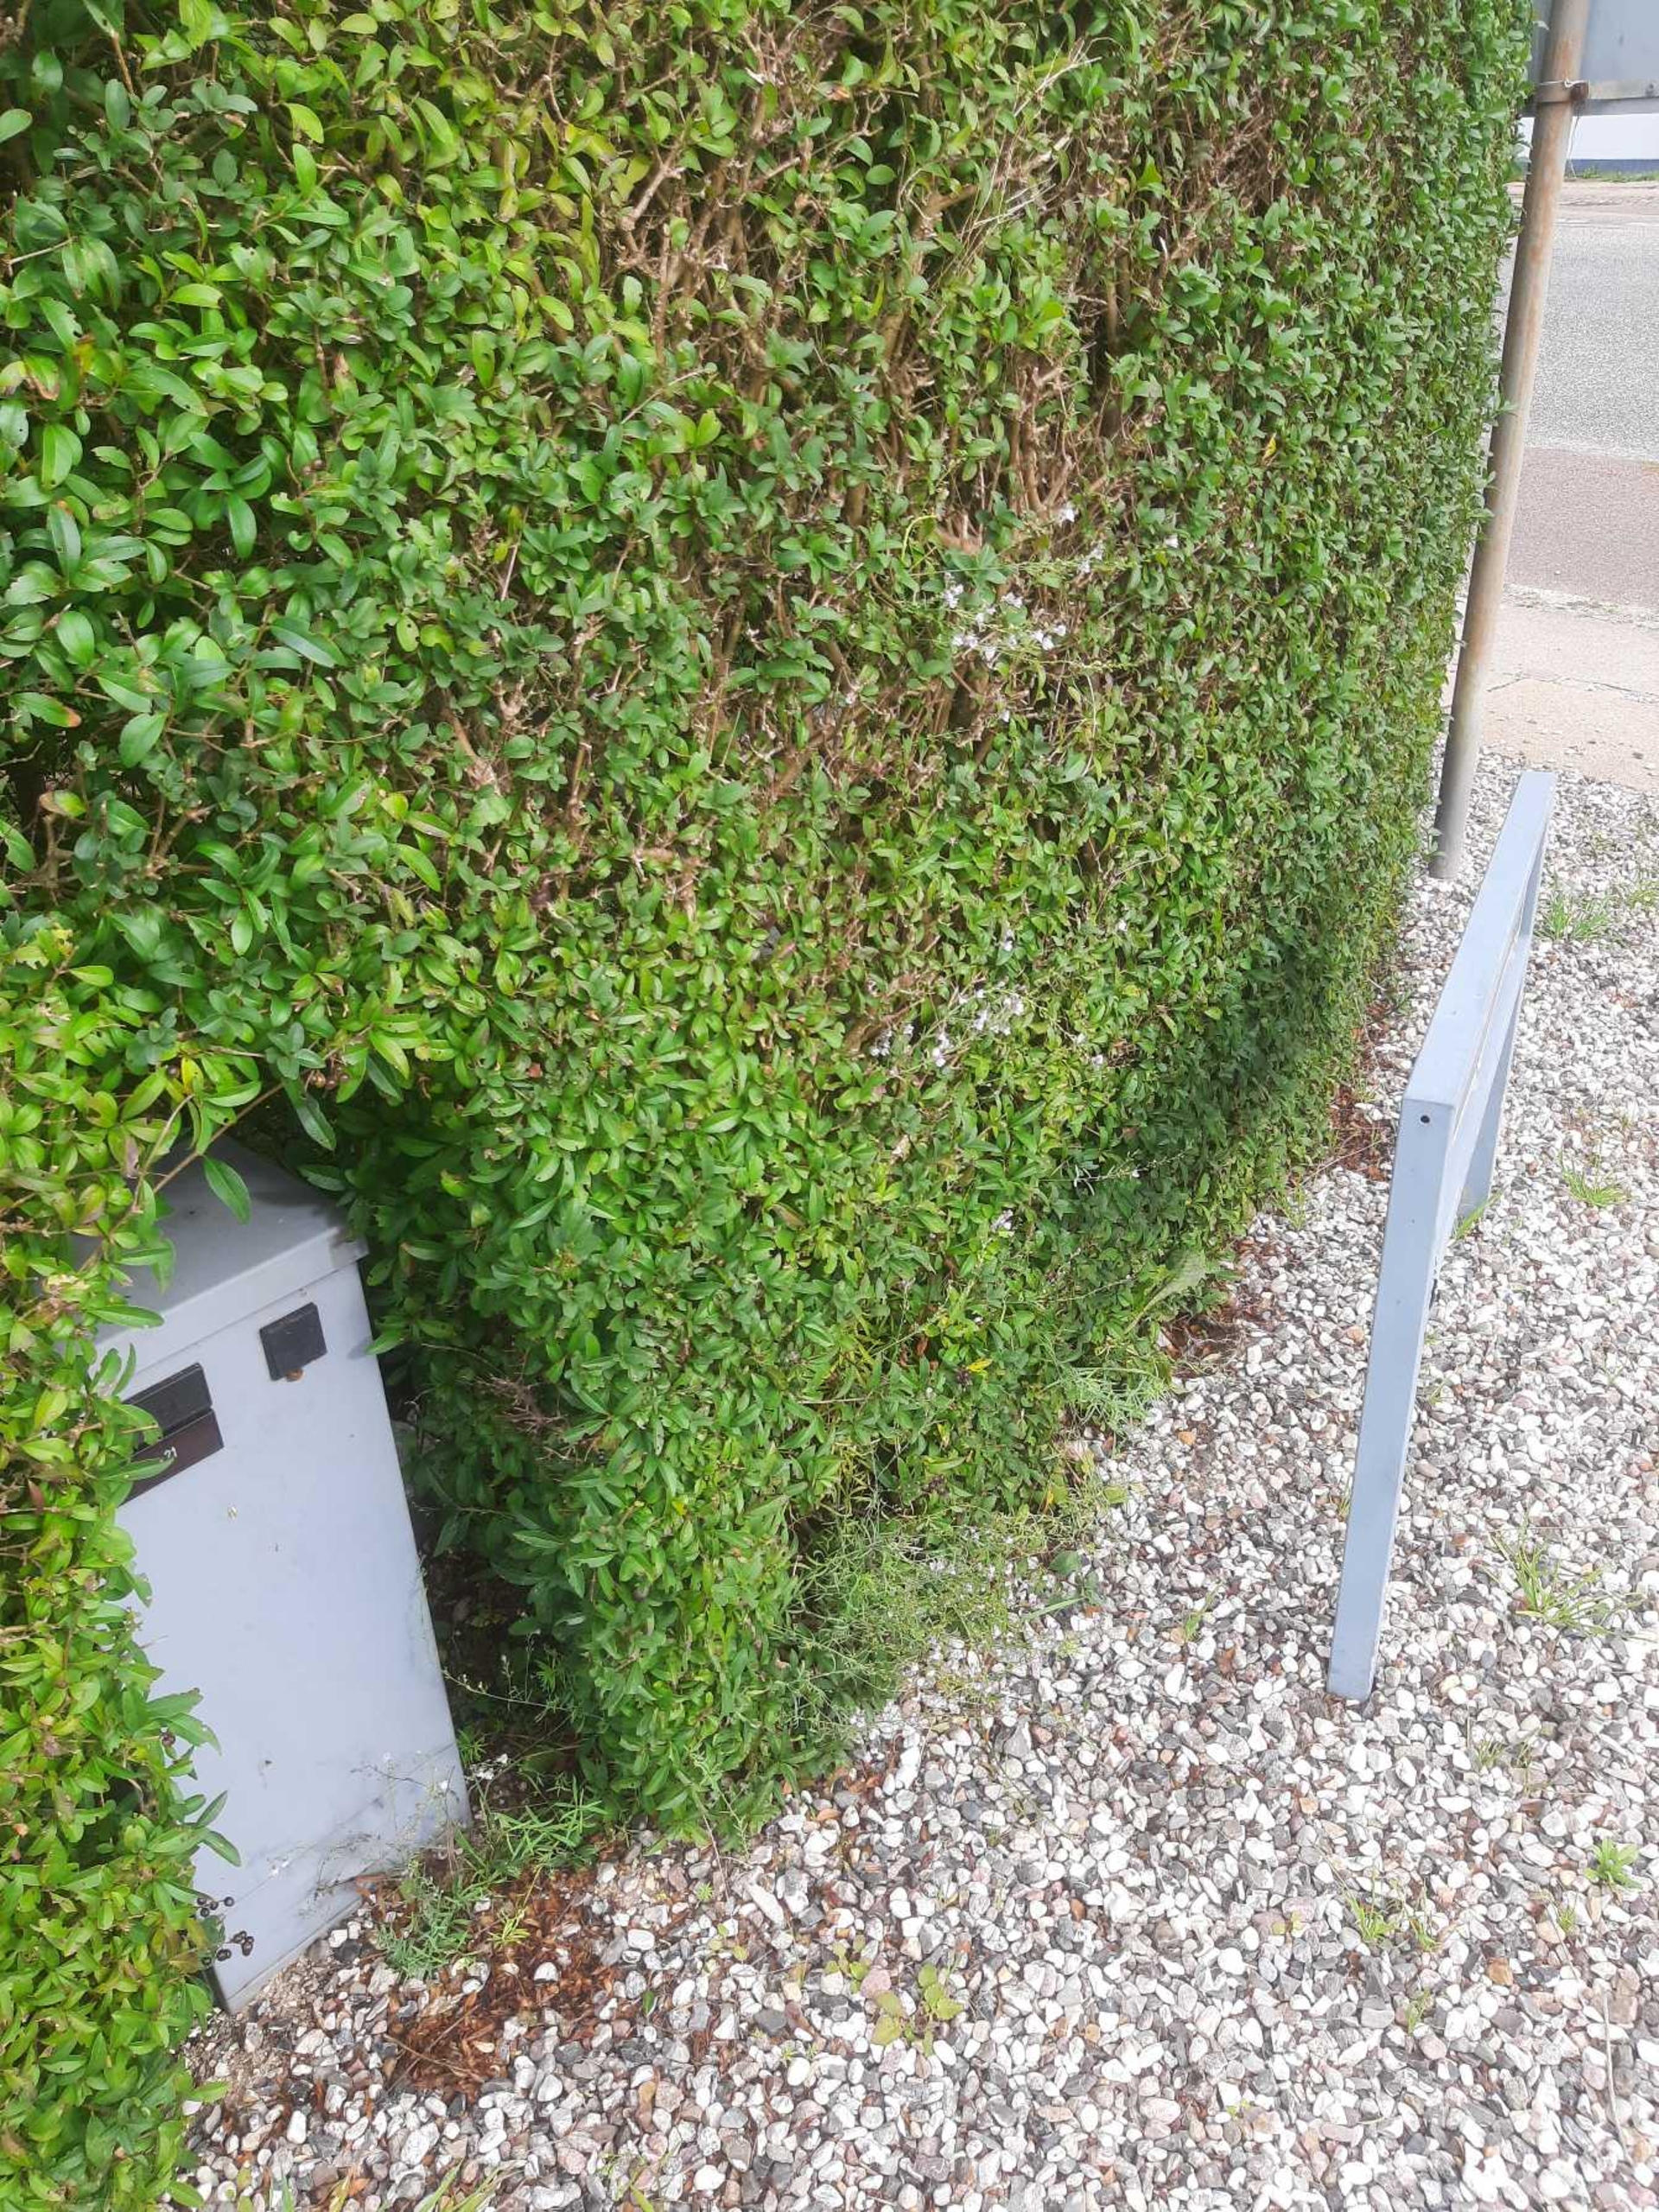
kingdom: Plantae
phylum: Tracheophyta
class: Magnoliopsida
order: Lamiales
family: Plantaginaceae
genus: Linaria
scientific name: Linaria repens
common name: Stribet torskemund
